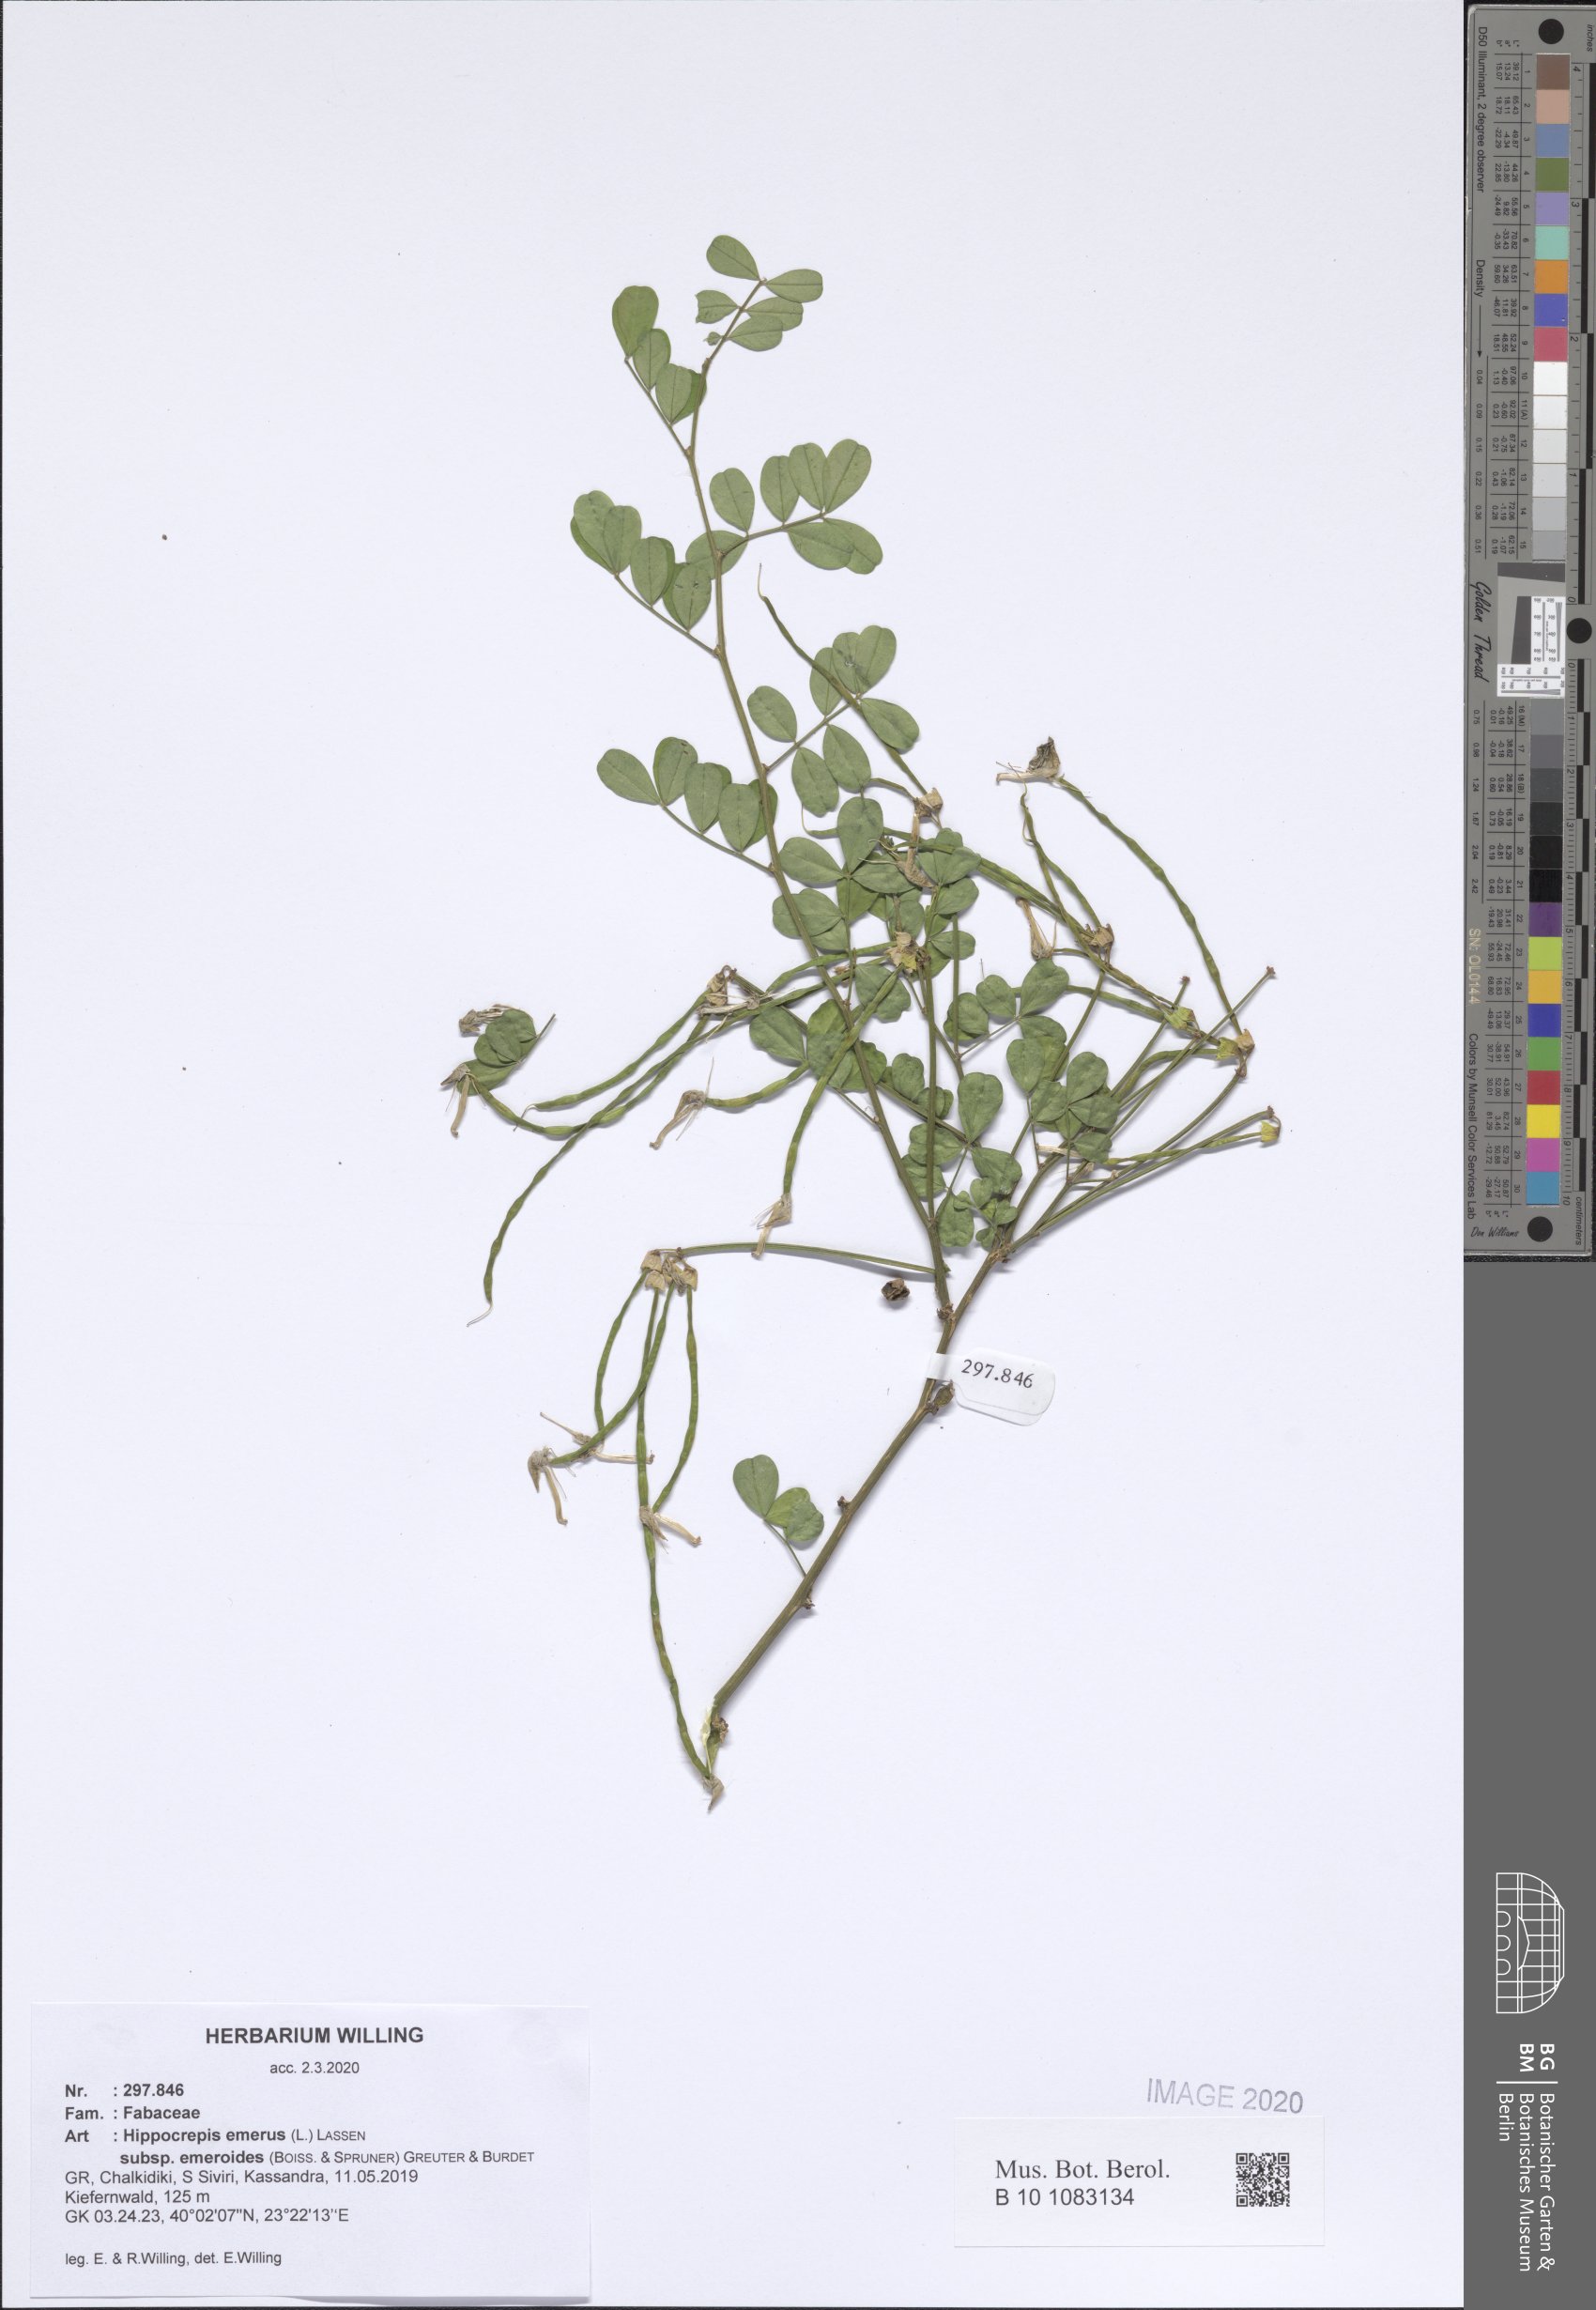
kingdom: Plantae
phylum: Tracheophyta
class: Magnoliopsida
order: Fabales
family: Fabaceae
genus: Hippocrepis
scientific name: Hippocrepis emerus
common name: Scorpion senna
